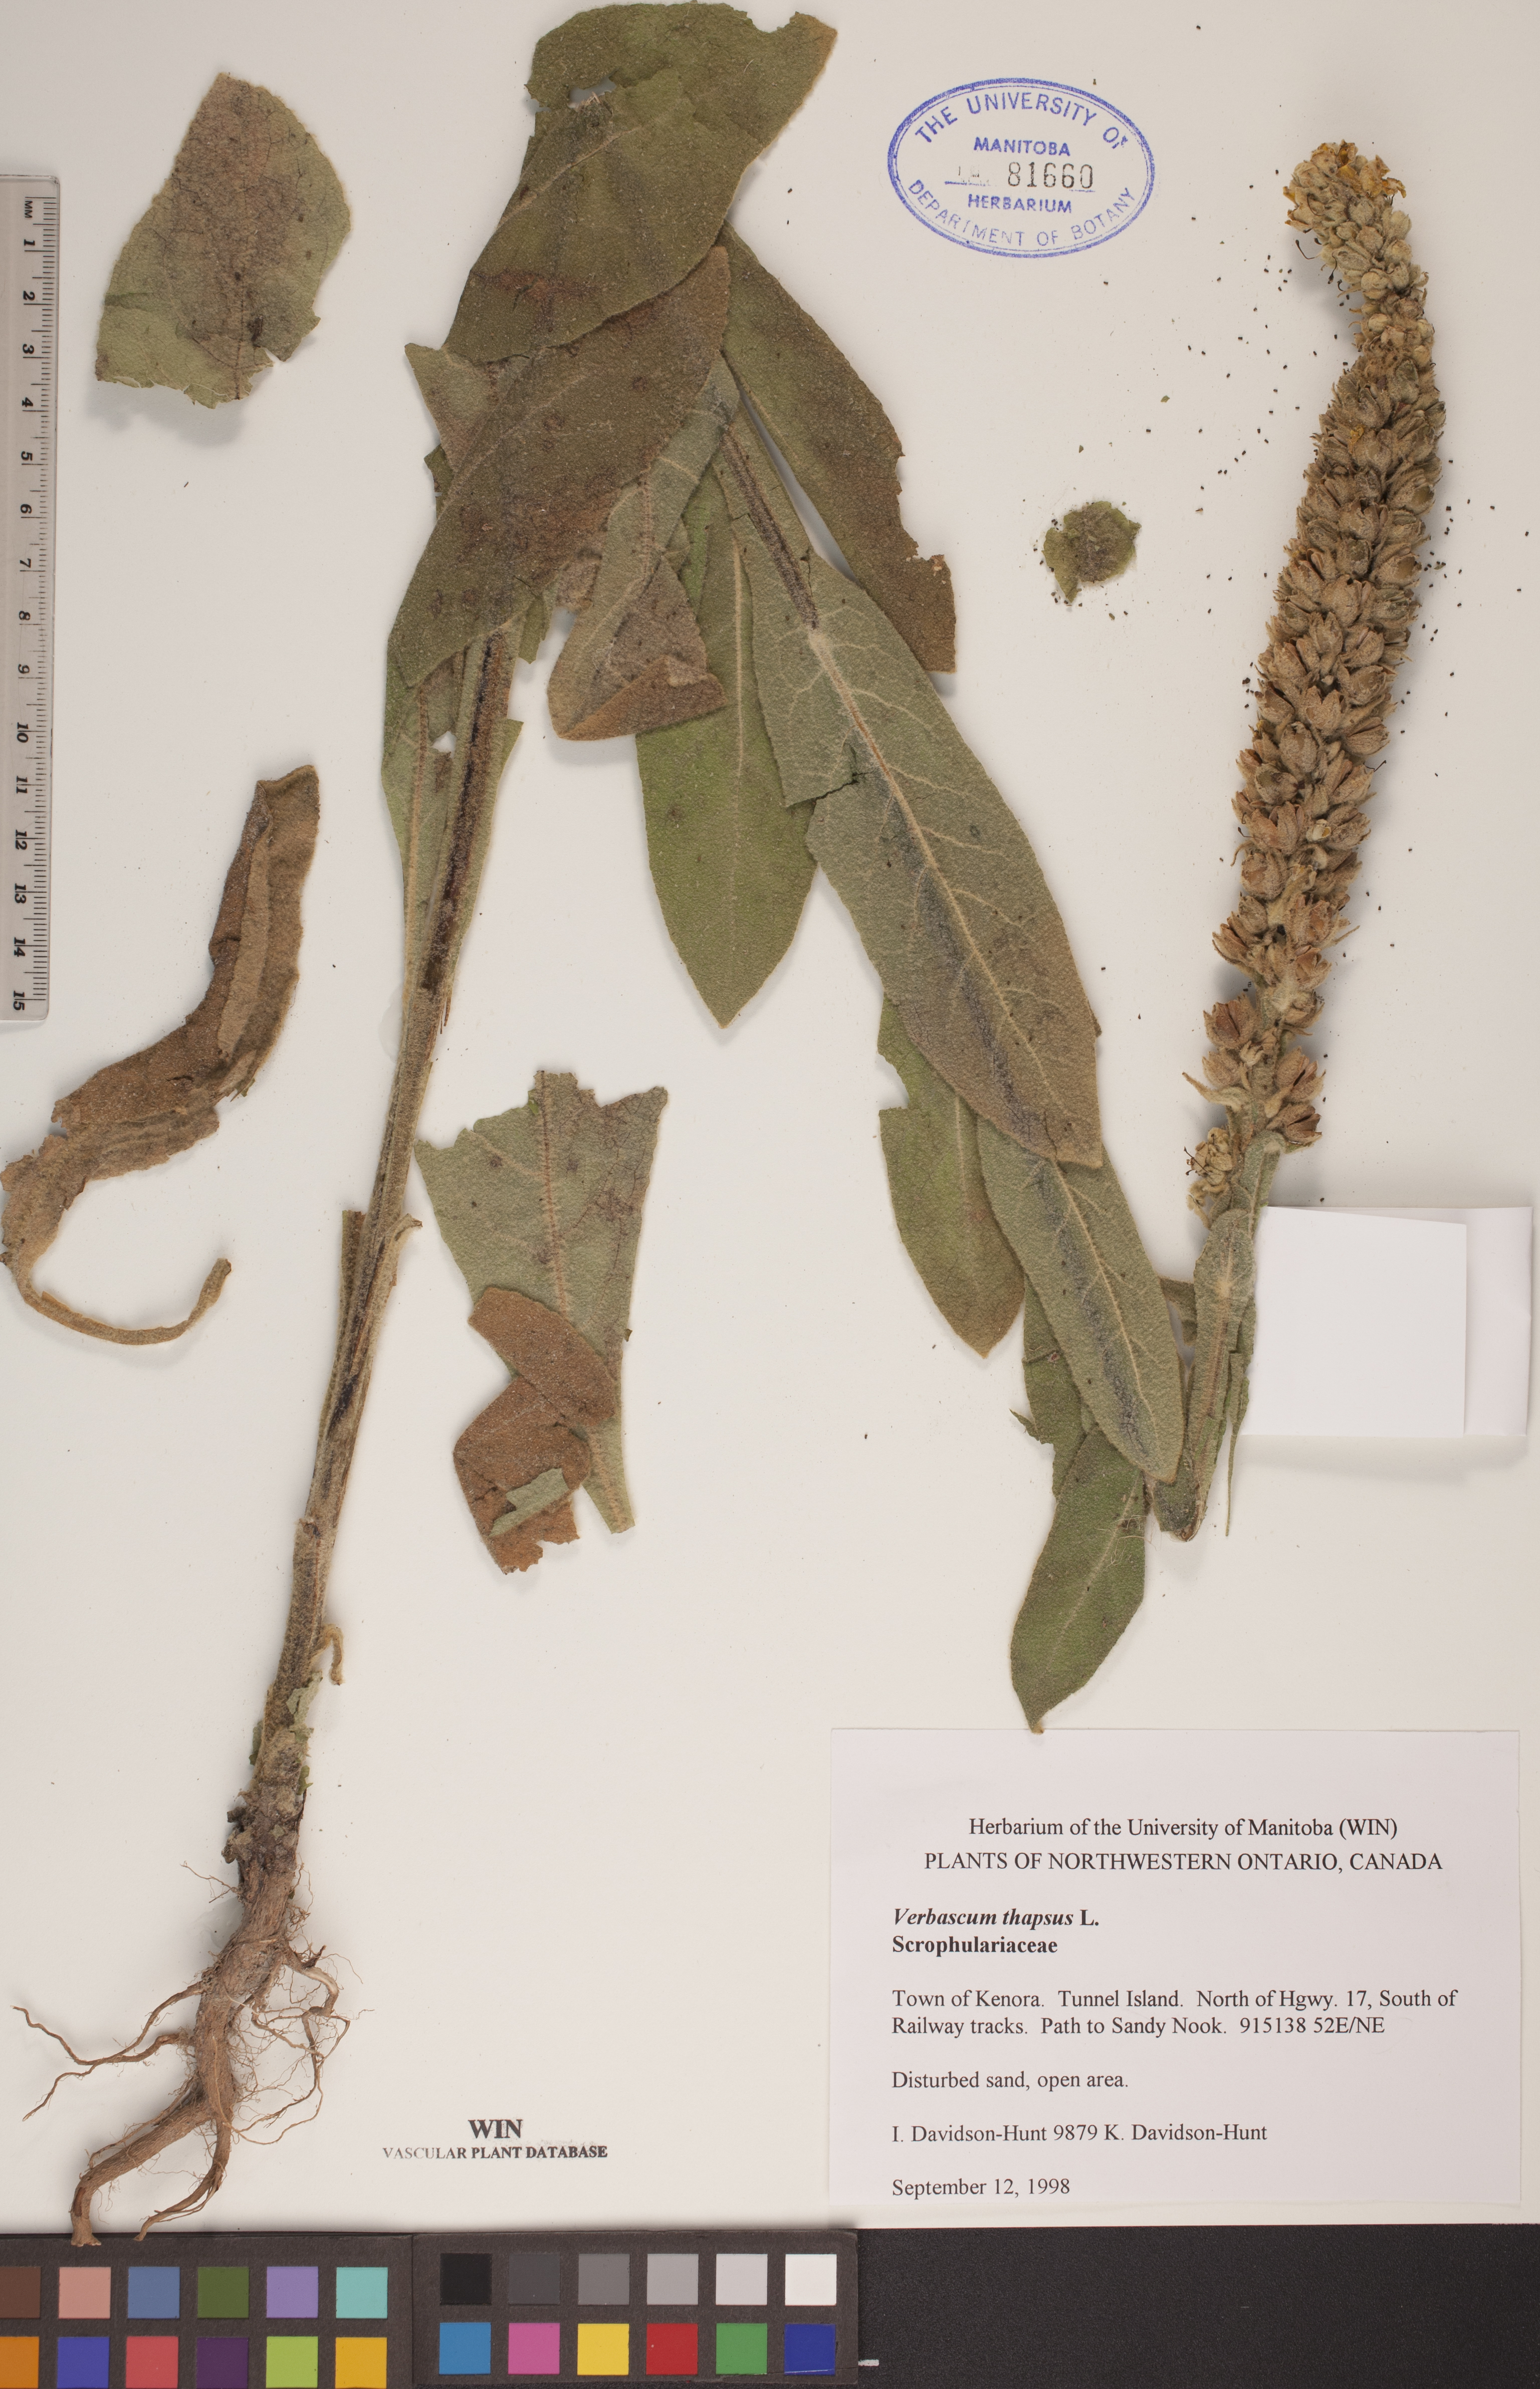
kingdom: Plantae
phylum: Tracheophyta
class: Magnoliopsida
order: Lamiales
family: Scrophulariaceae
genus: Verbascum
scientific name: Verbascum thapsus
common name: Common mullein
